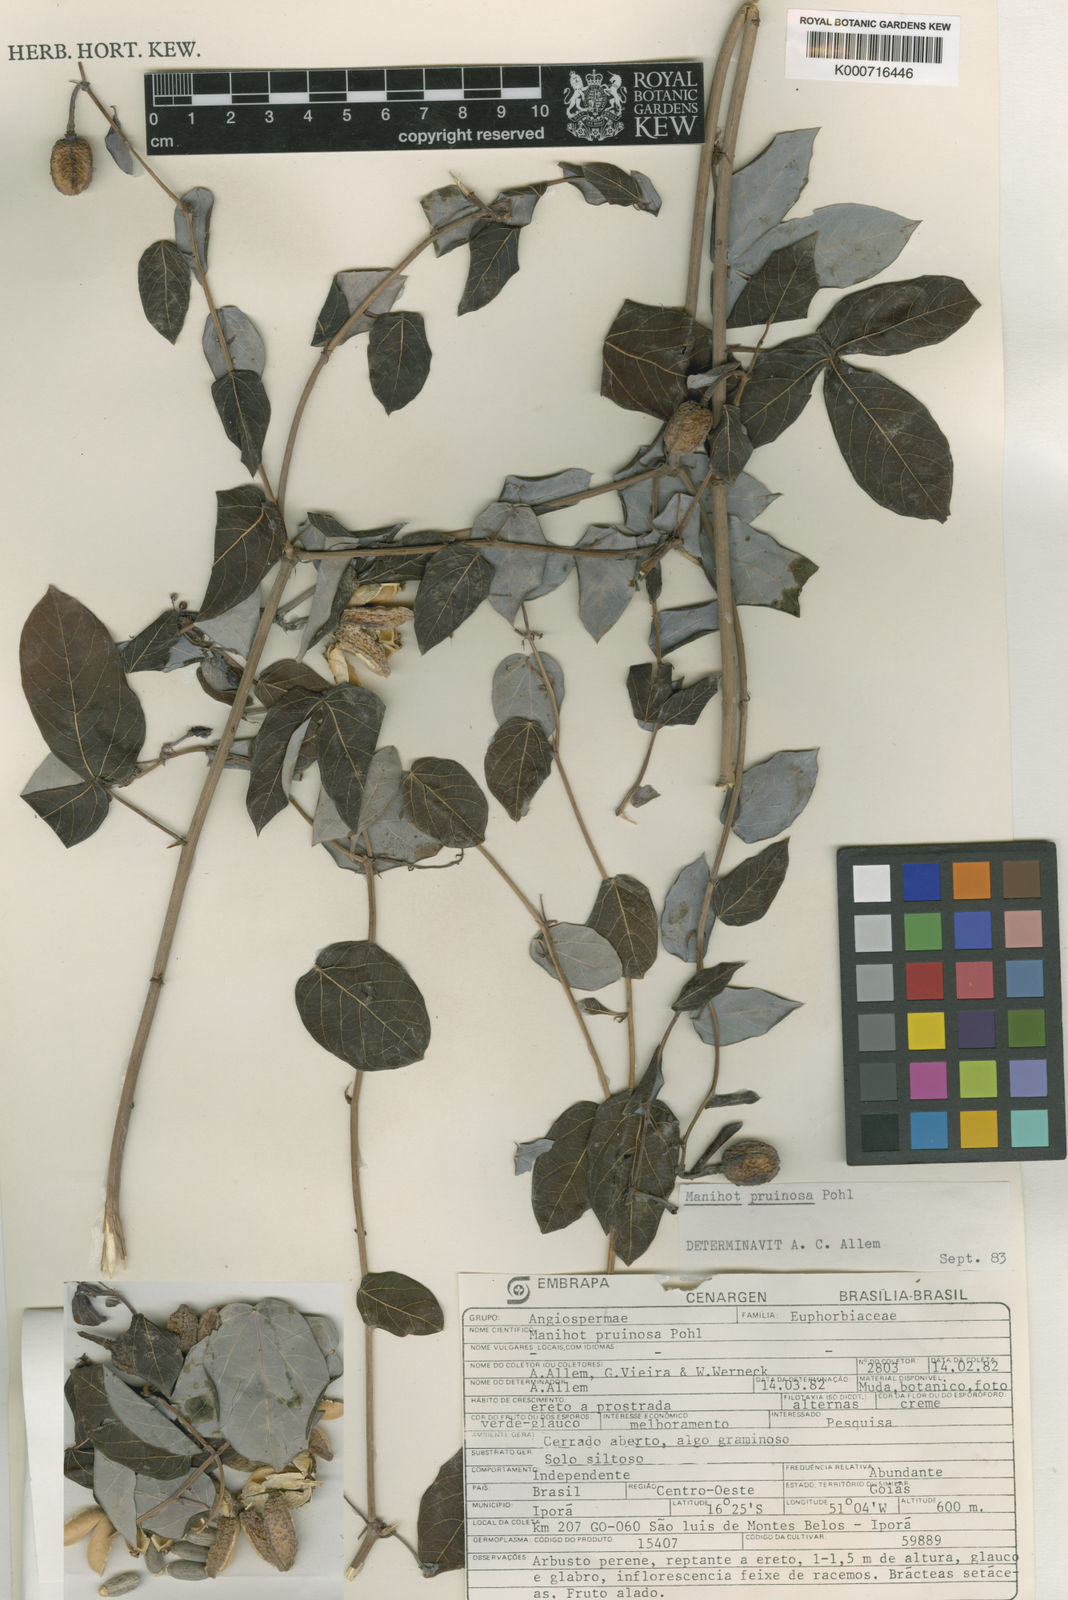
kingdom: Plantae
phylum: Tracheophyta
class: Magnoliopsida
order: Malpighiales
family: Euphorbiaceae
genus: Manihot
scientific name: Manihot pruinosa
